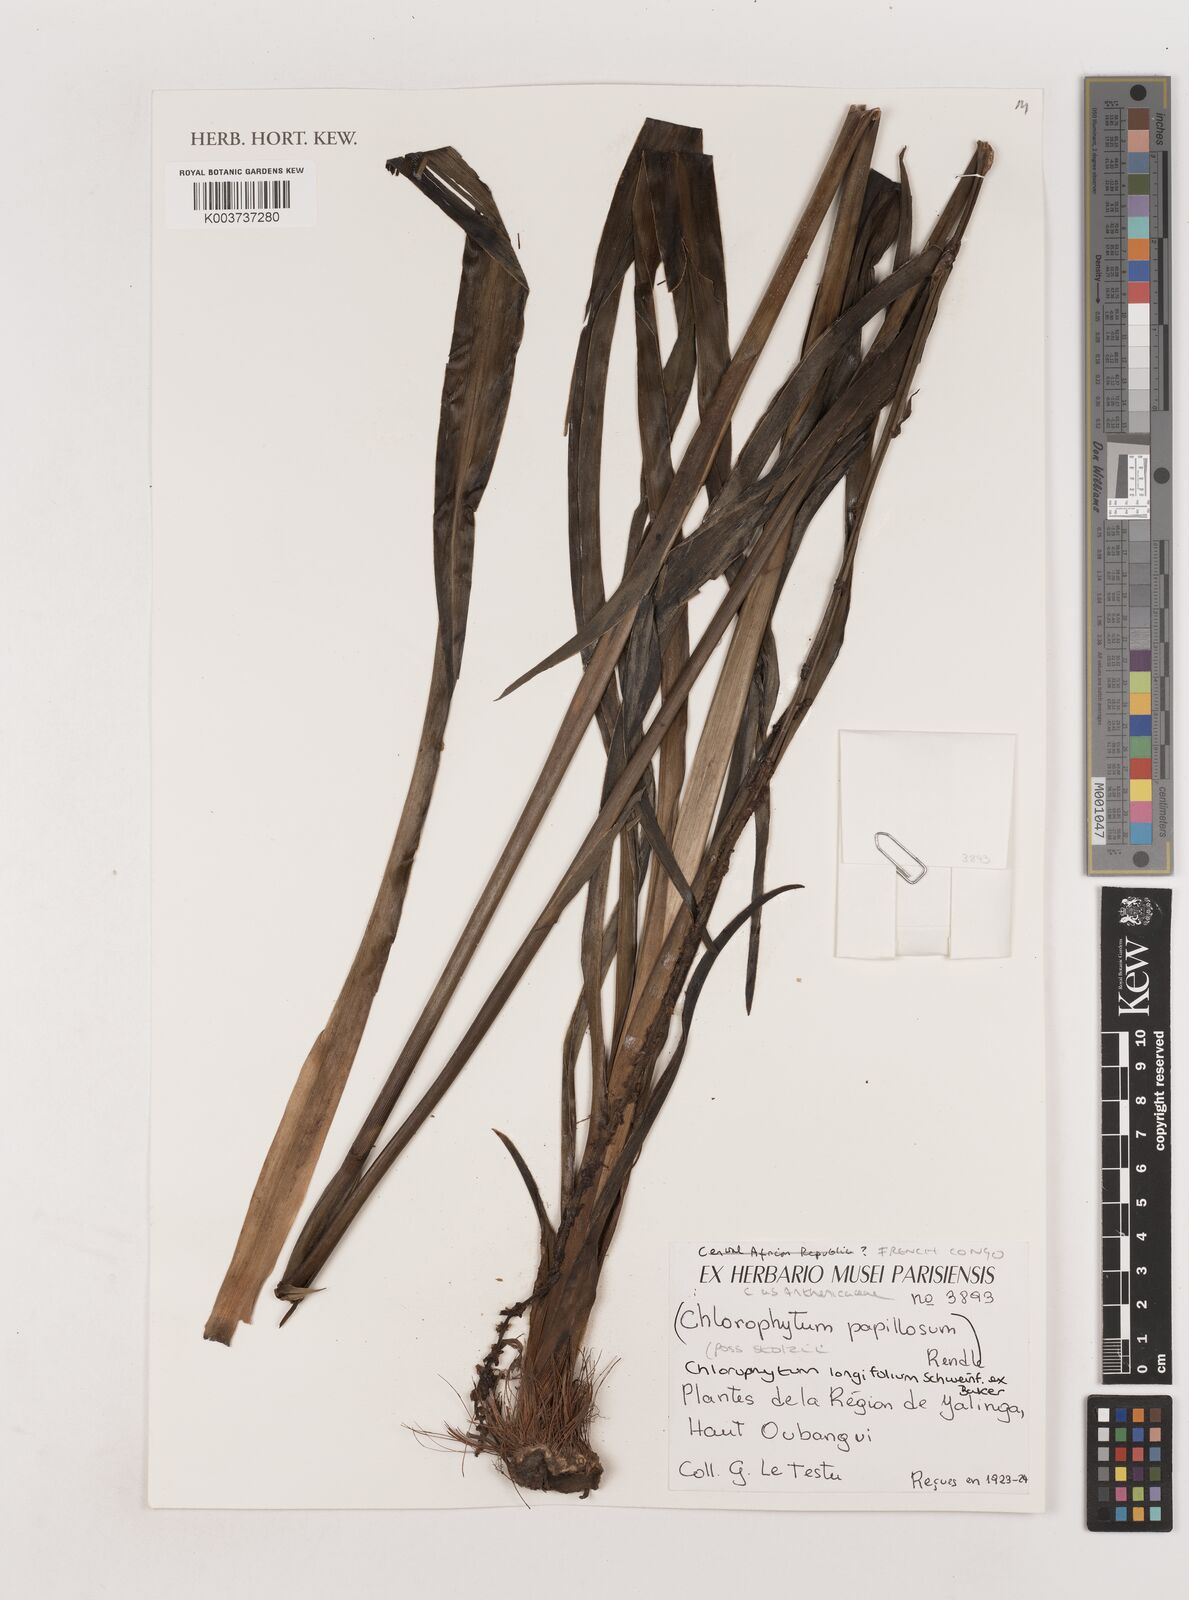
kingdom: Plantae
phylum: Tracheophyta
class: Liliopsida
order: Asparagales
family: Asparagaceae
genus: Chlorophytum
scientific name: Chlorophytum longifolium
